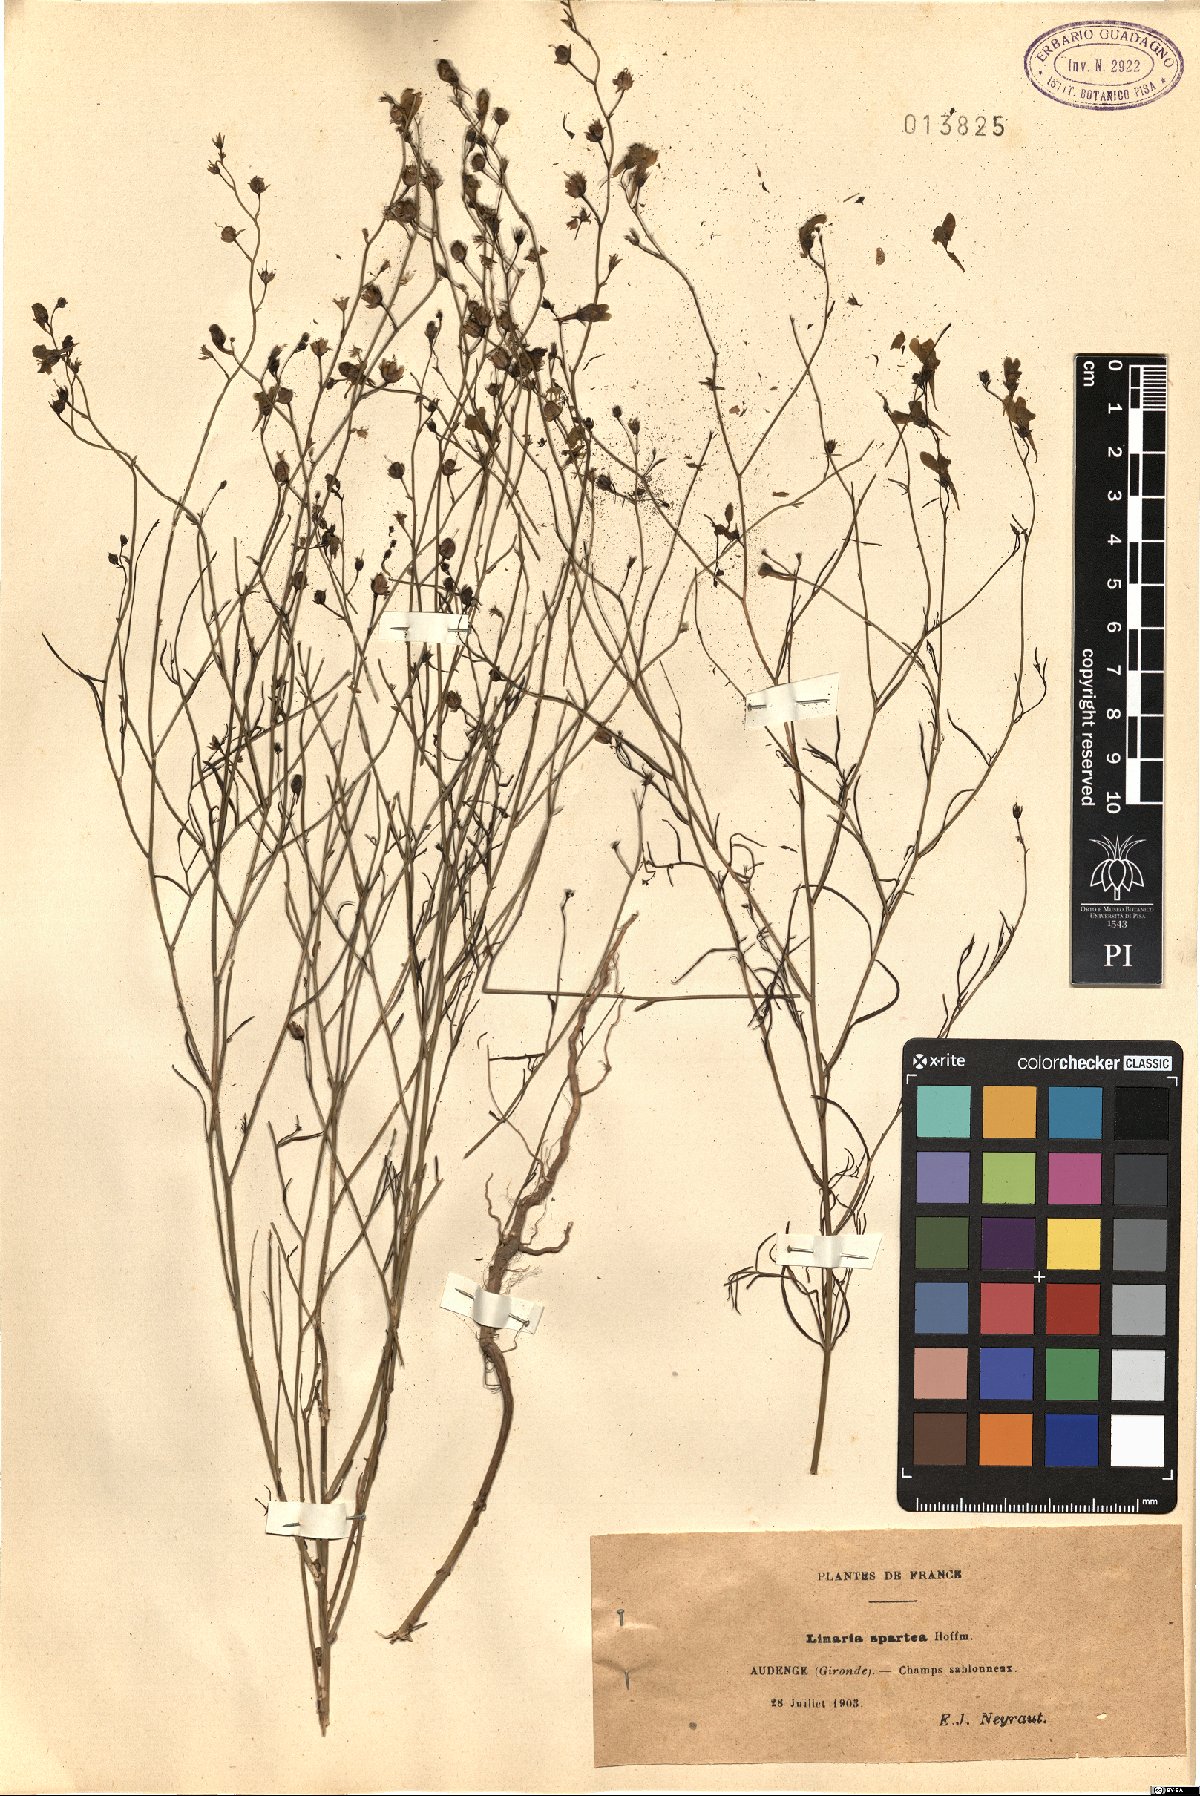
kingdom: Plantae
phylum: Tracheophyta
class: Magnoliopsida
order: Lamiales
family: Plantaginaceae
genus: Linaria
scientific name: Linaria spartea
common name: Ballast toadflax
